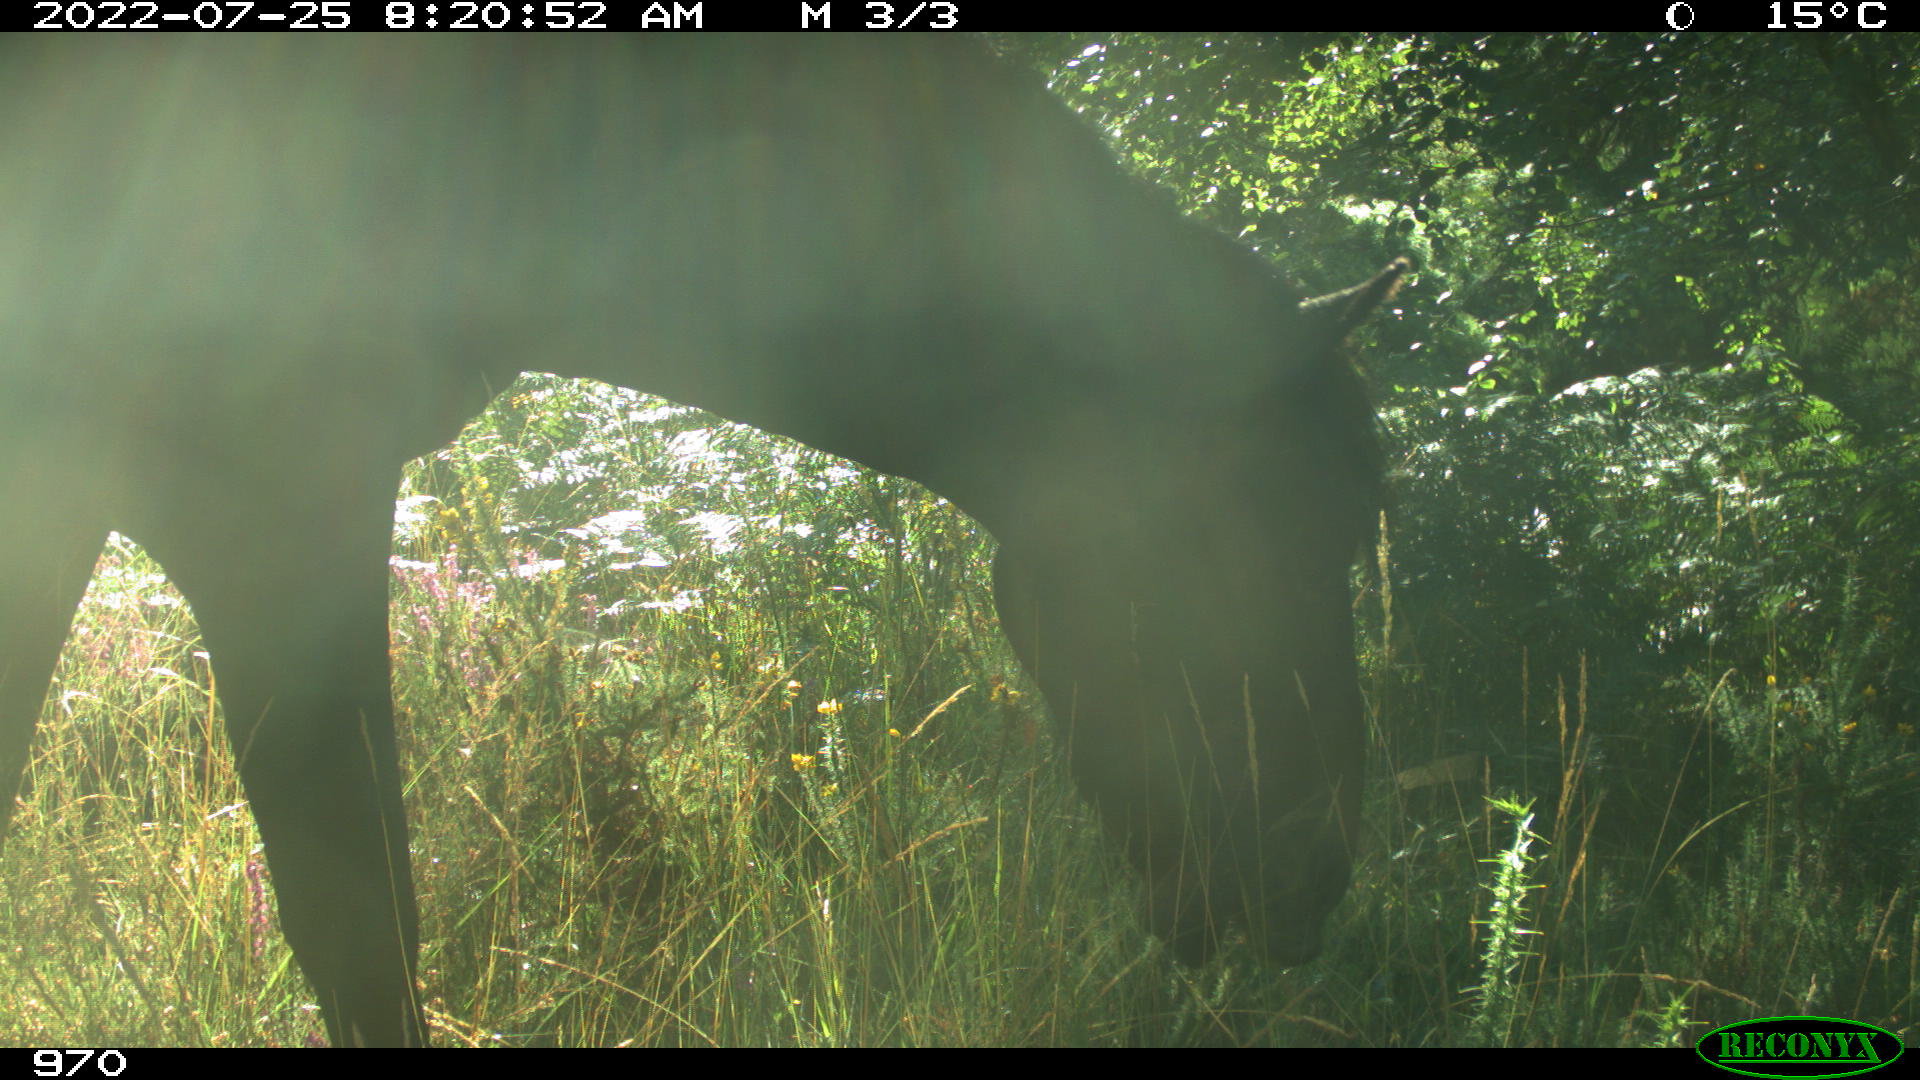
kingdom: Animalia
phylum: Chordata
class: Mammalia
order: Perissodactyla
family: Equidae
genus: Equus
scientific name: Equus caballus
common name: Horse
